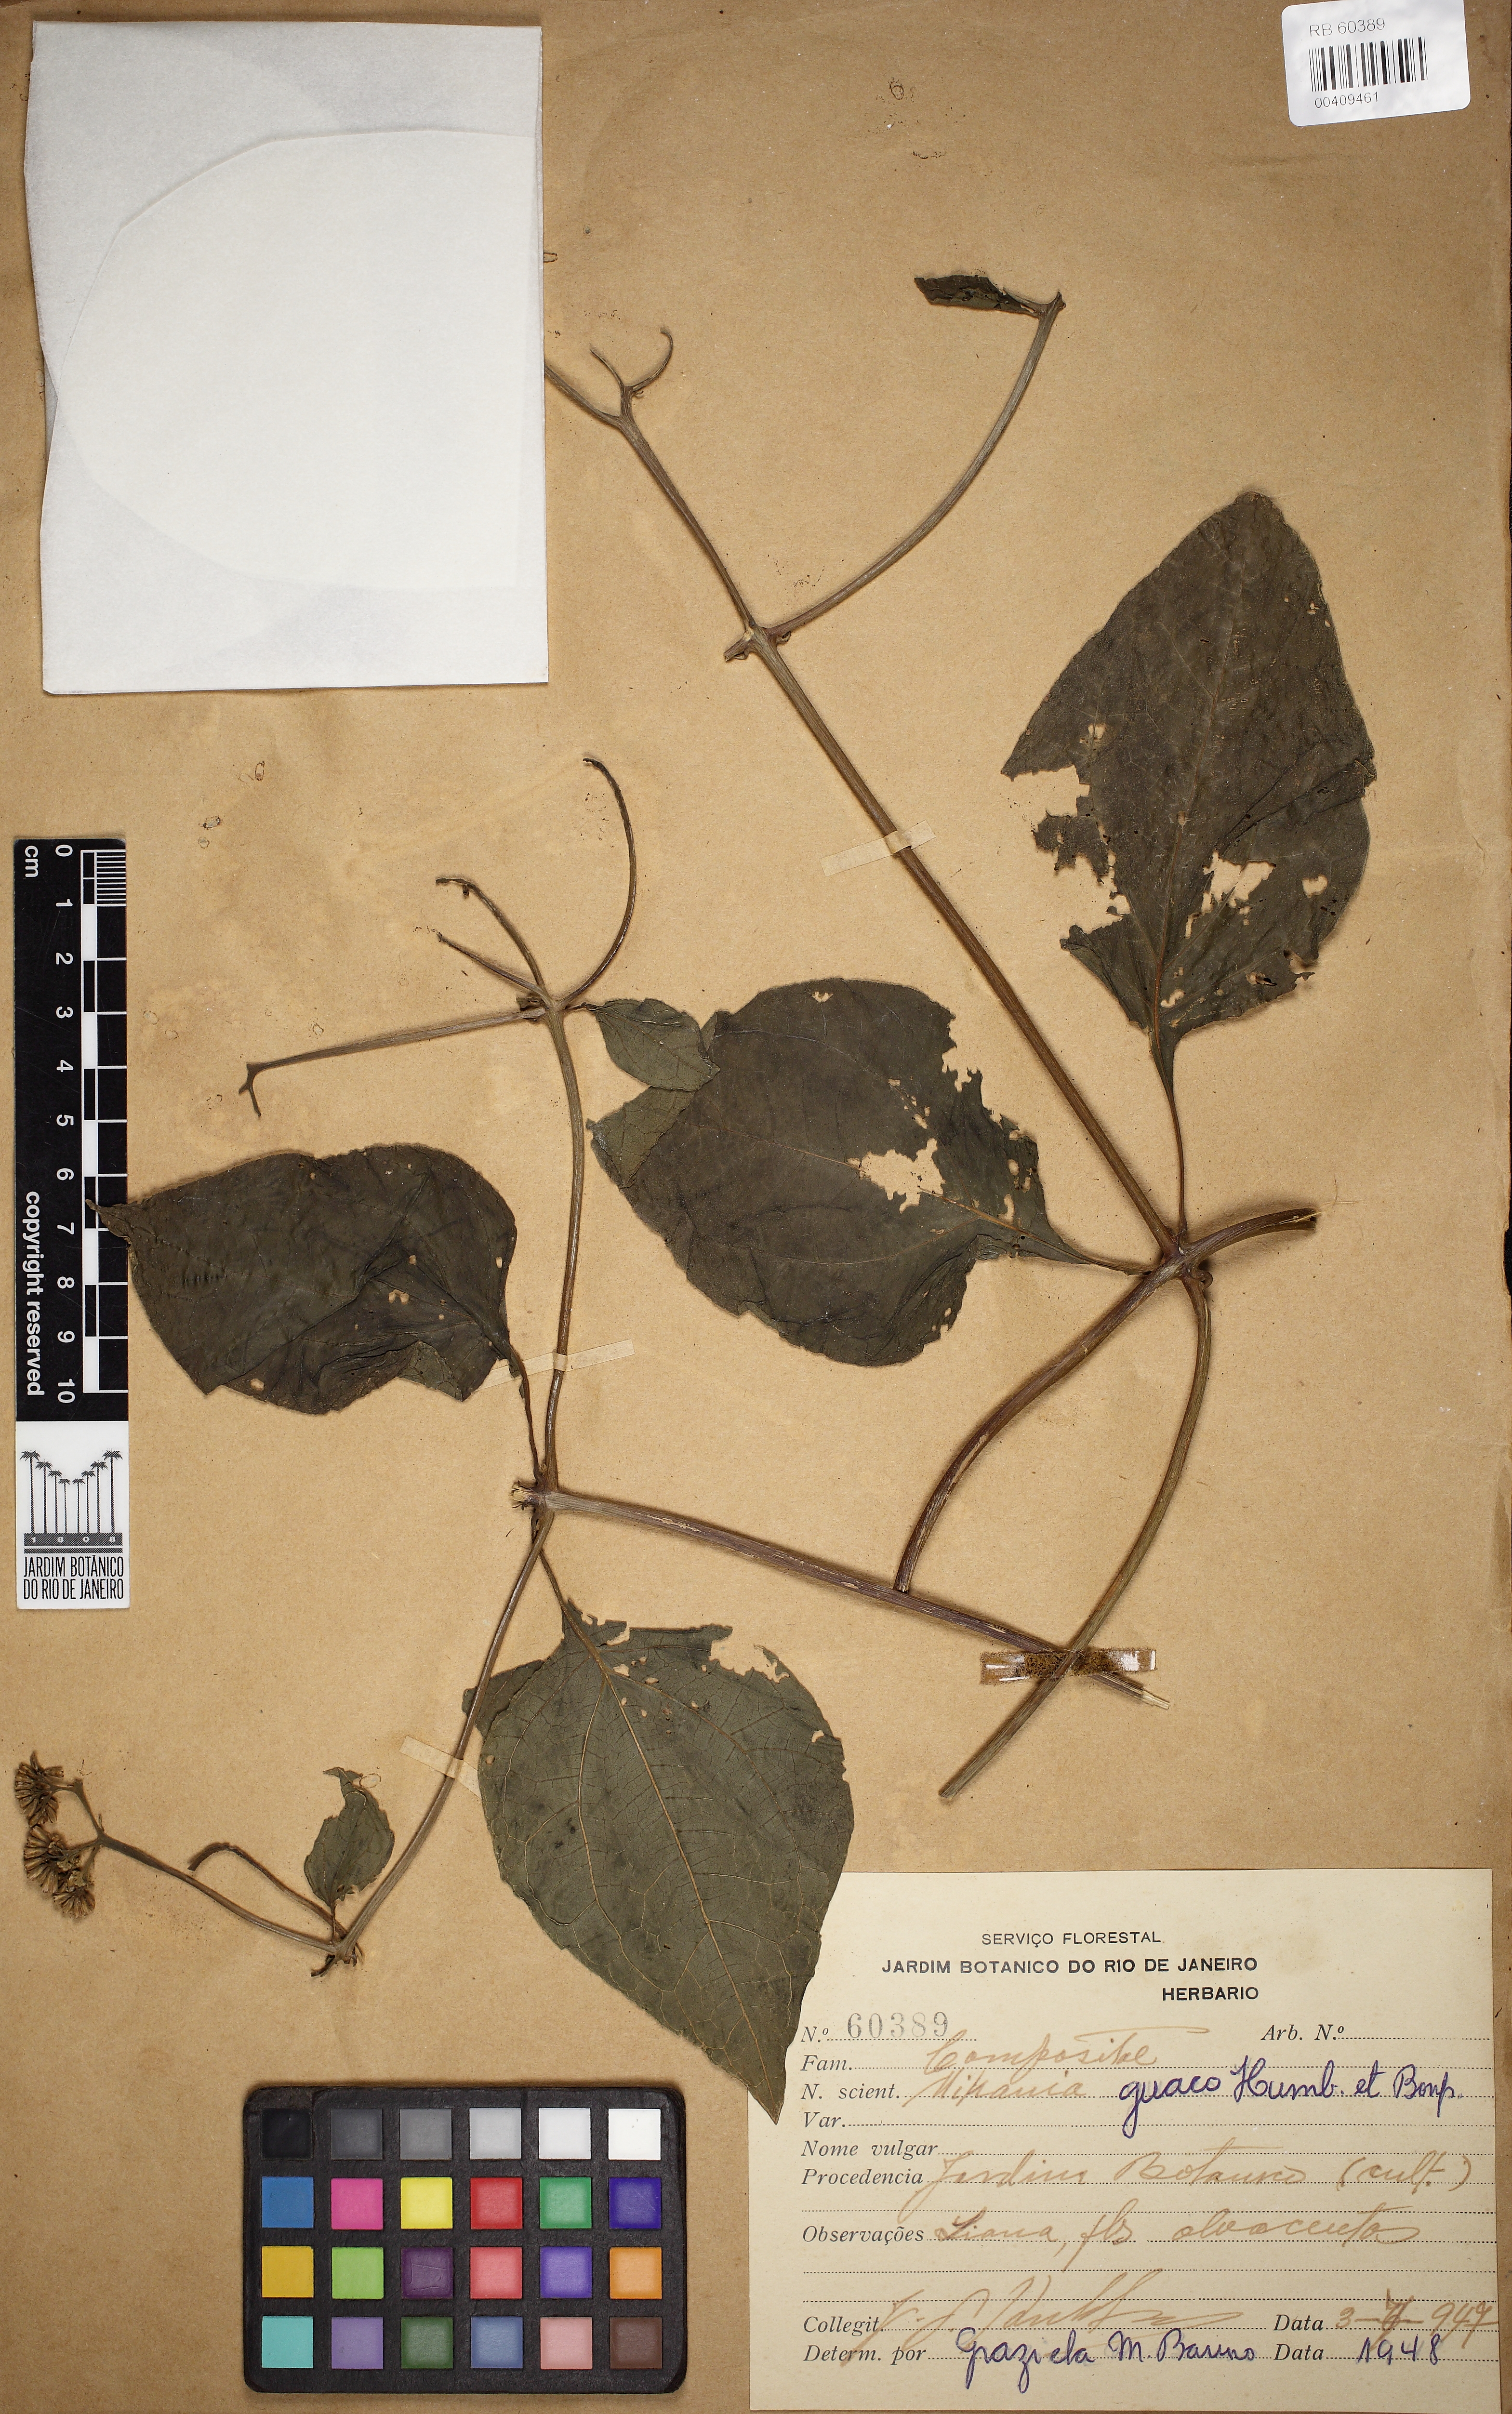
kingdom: Plantae
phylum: Tracheophyta
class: Magnoliopsida
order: Asterales
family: Asteraceae
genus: Mikania
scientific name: Mikania guaco
